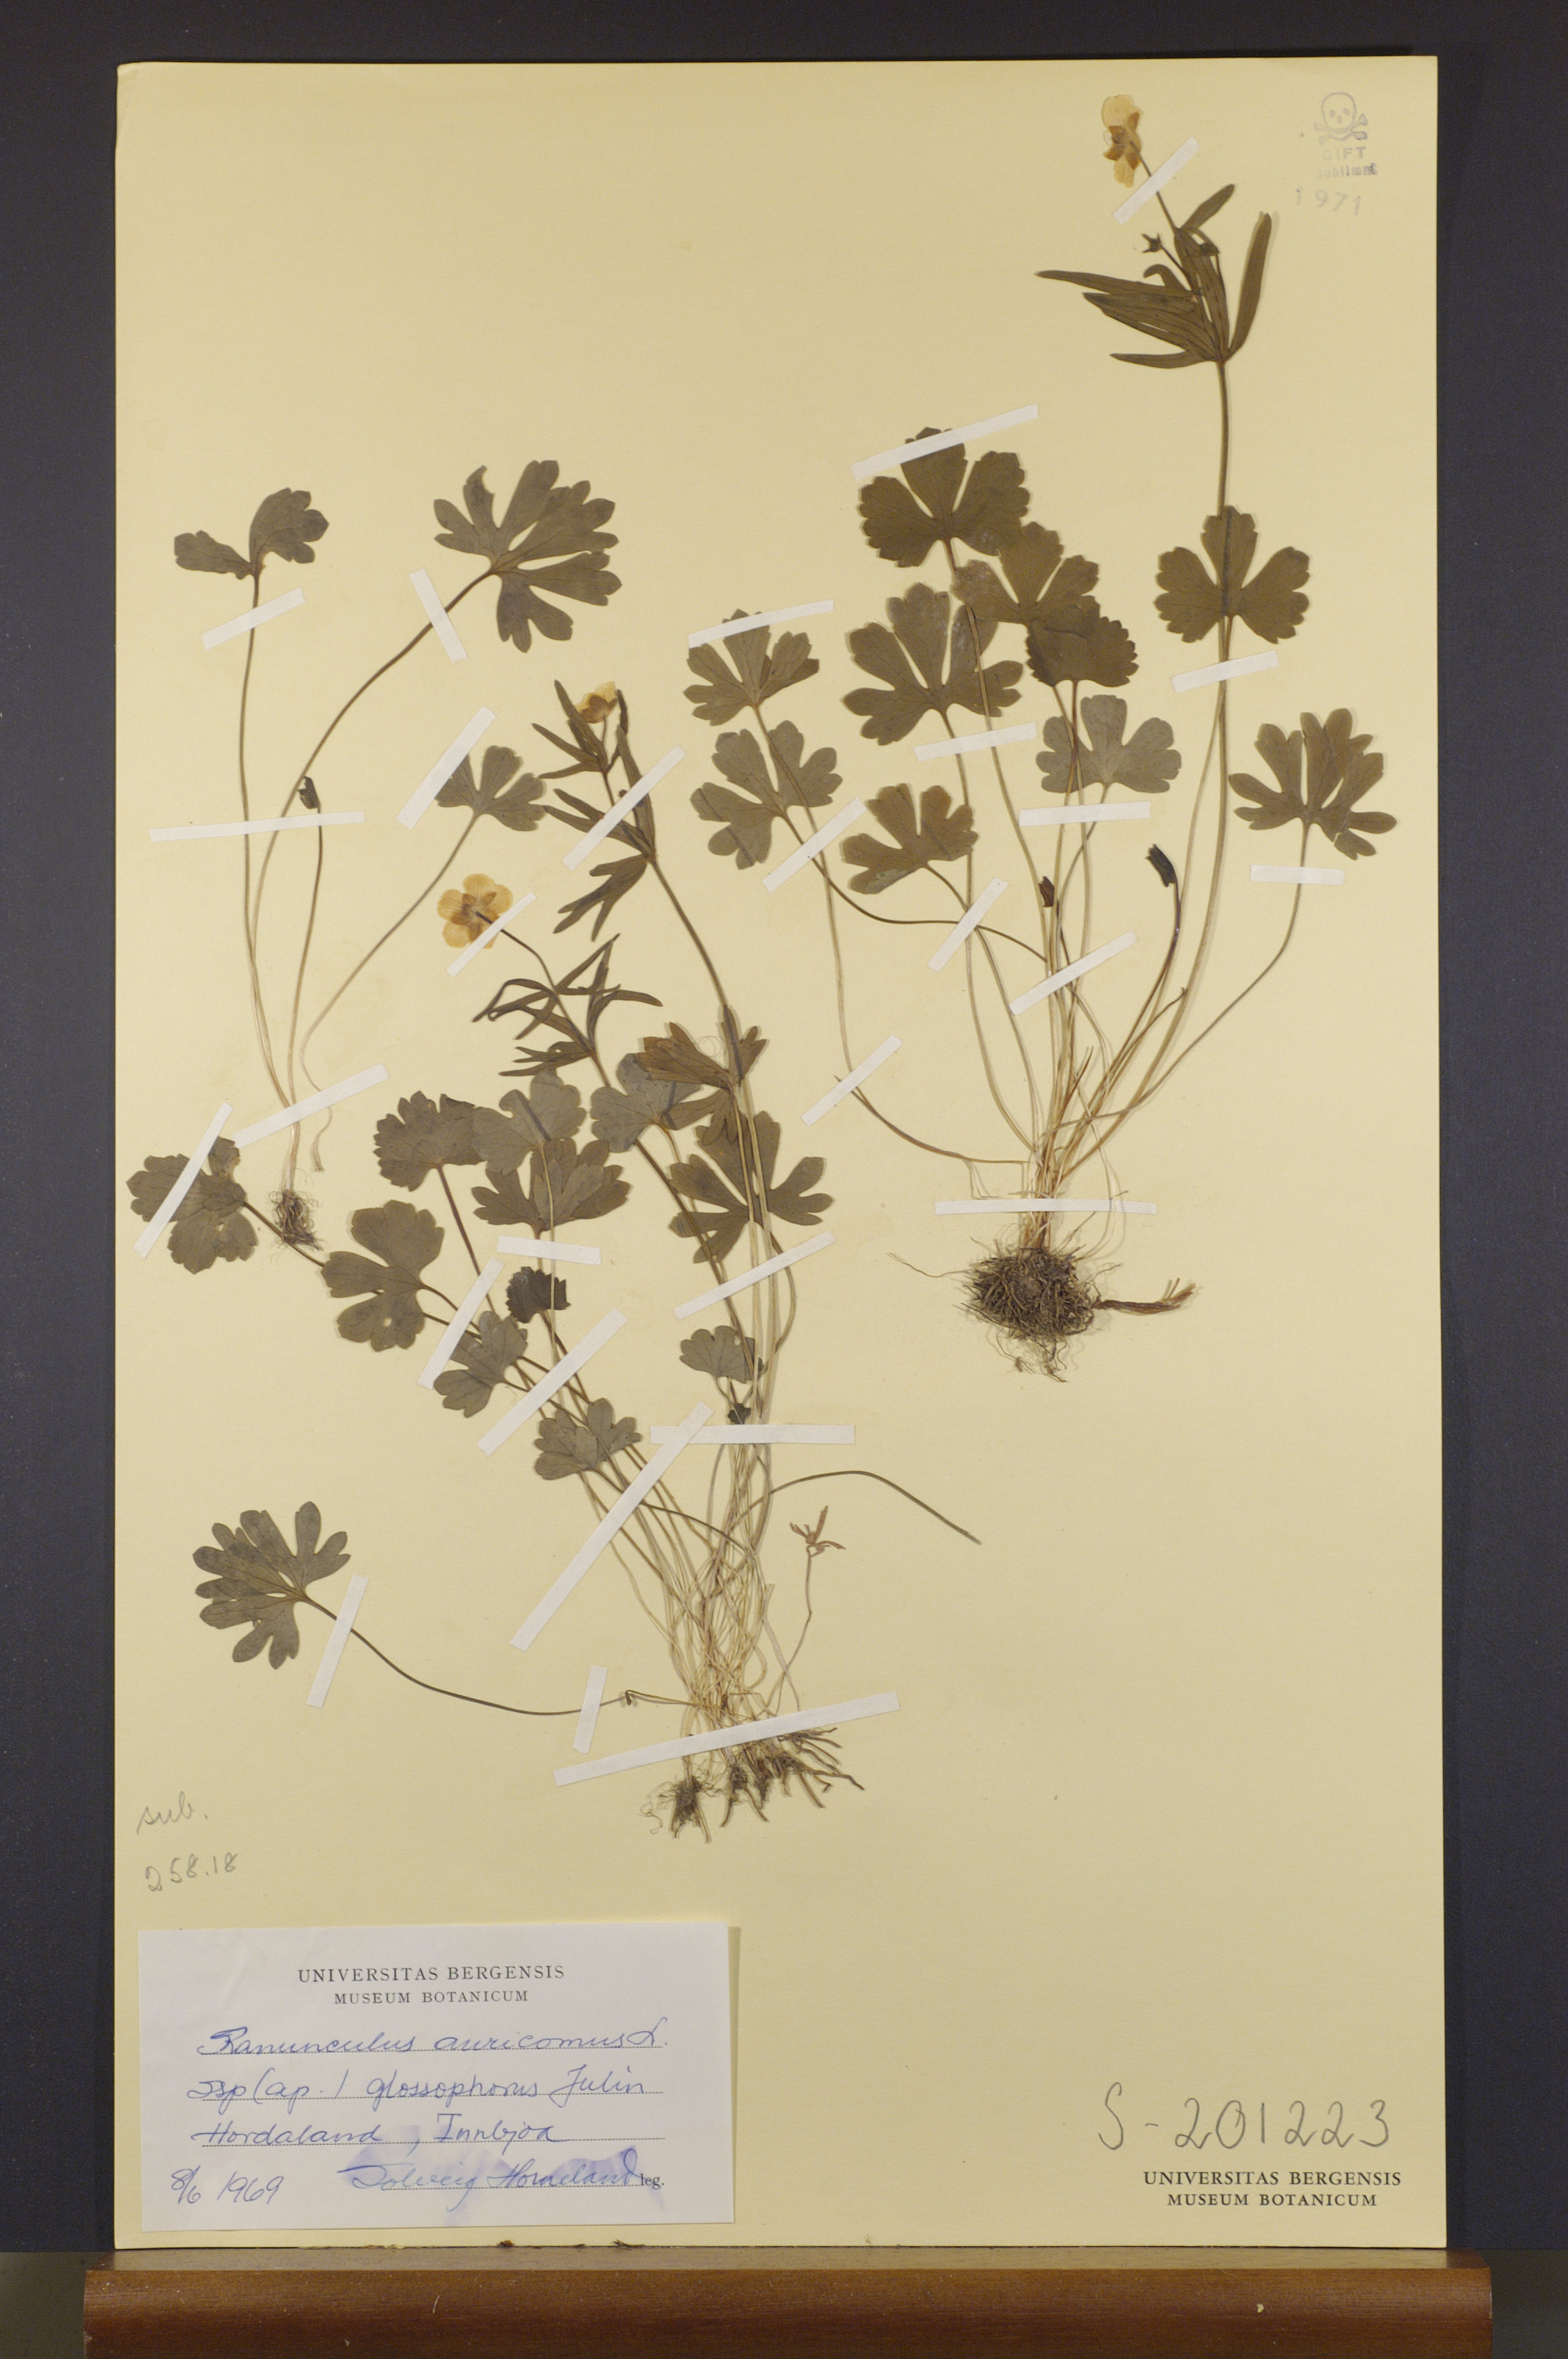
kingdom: Plantae
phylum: Tracheophyta
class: Magnoliopsida
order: Ranunculales
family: Ranunculaceae
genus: Ranunculus
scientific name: Ranunculus glossophorus
